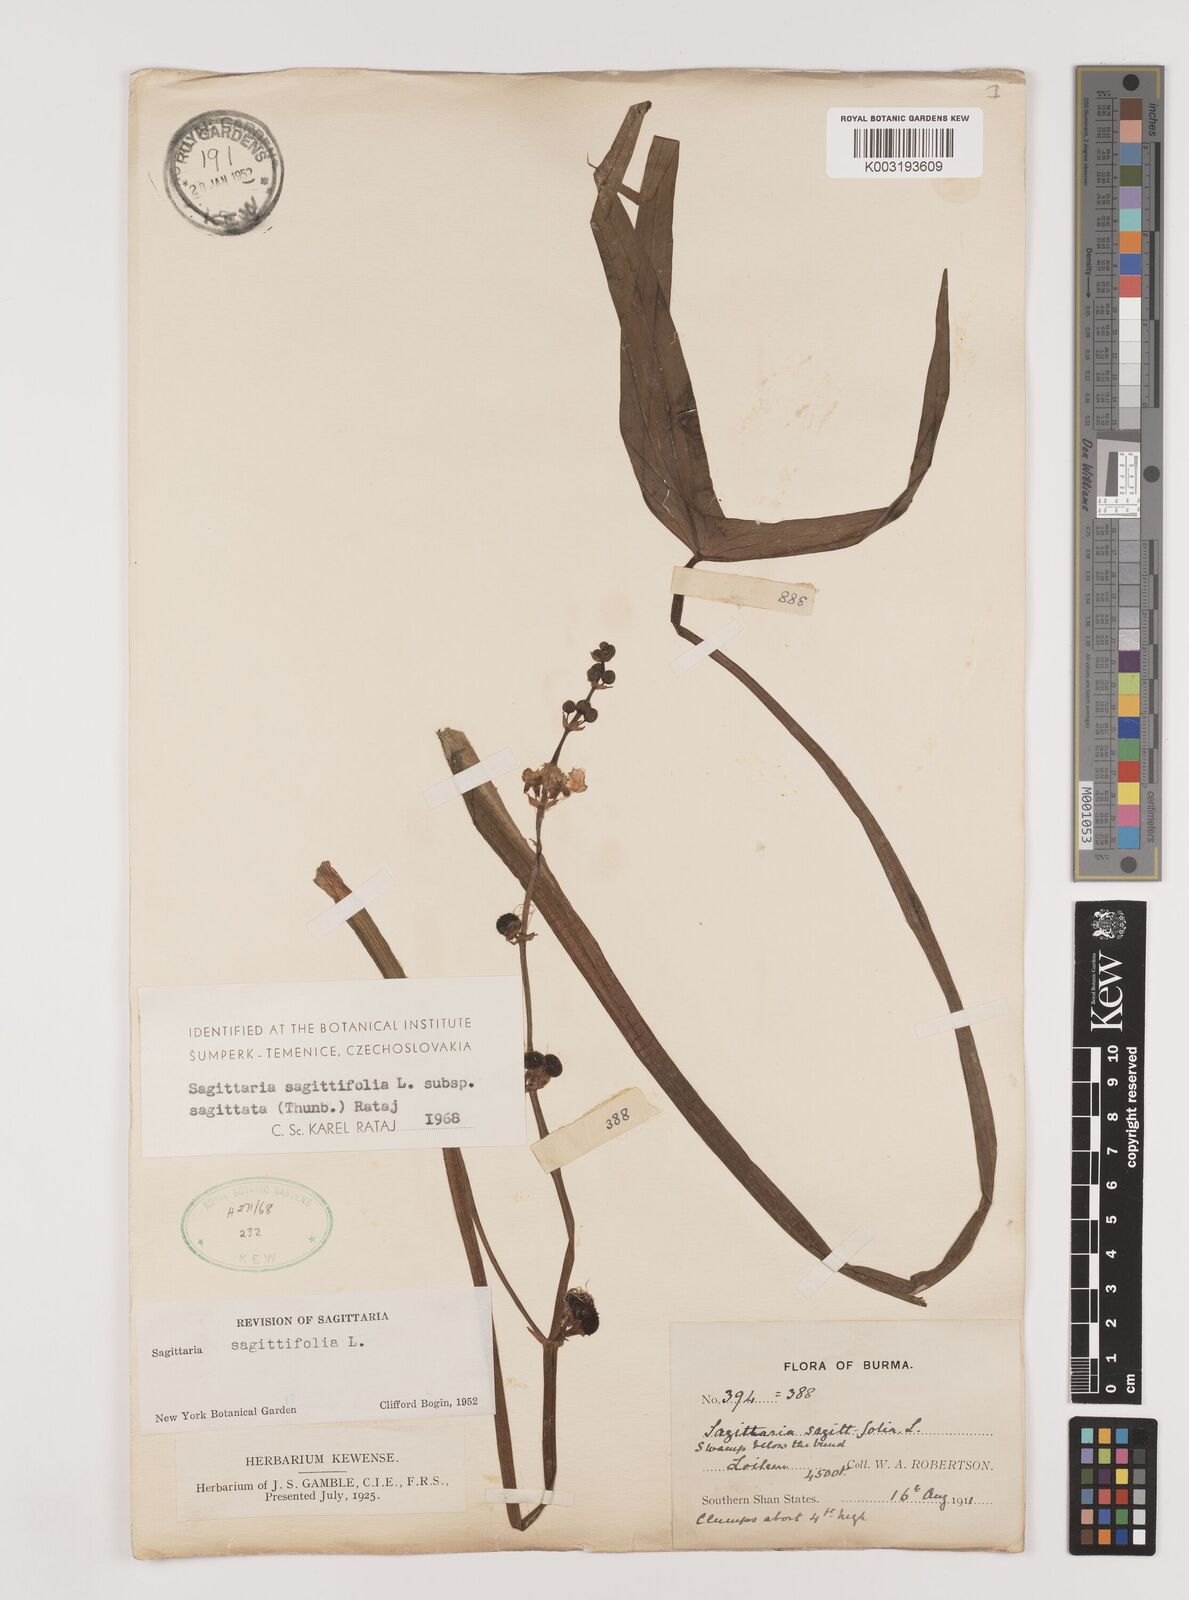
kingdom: Plantae
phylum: Tracheophyta
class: Liliopsida
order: Alismatales
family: Alismataceae
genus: Sagittaria
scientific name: Sagittaria sagittifolia
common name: Arrowhead
